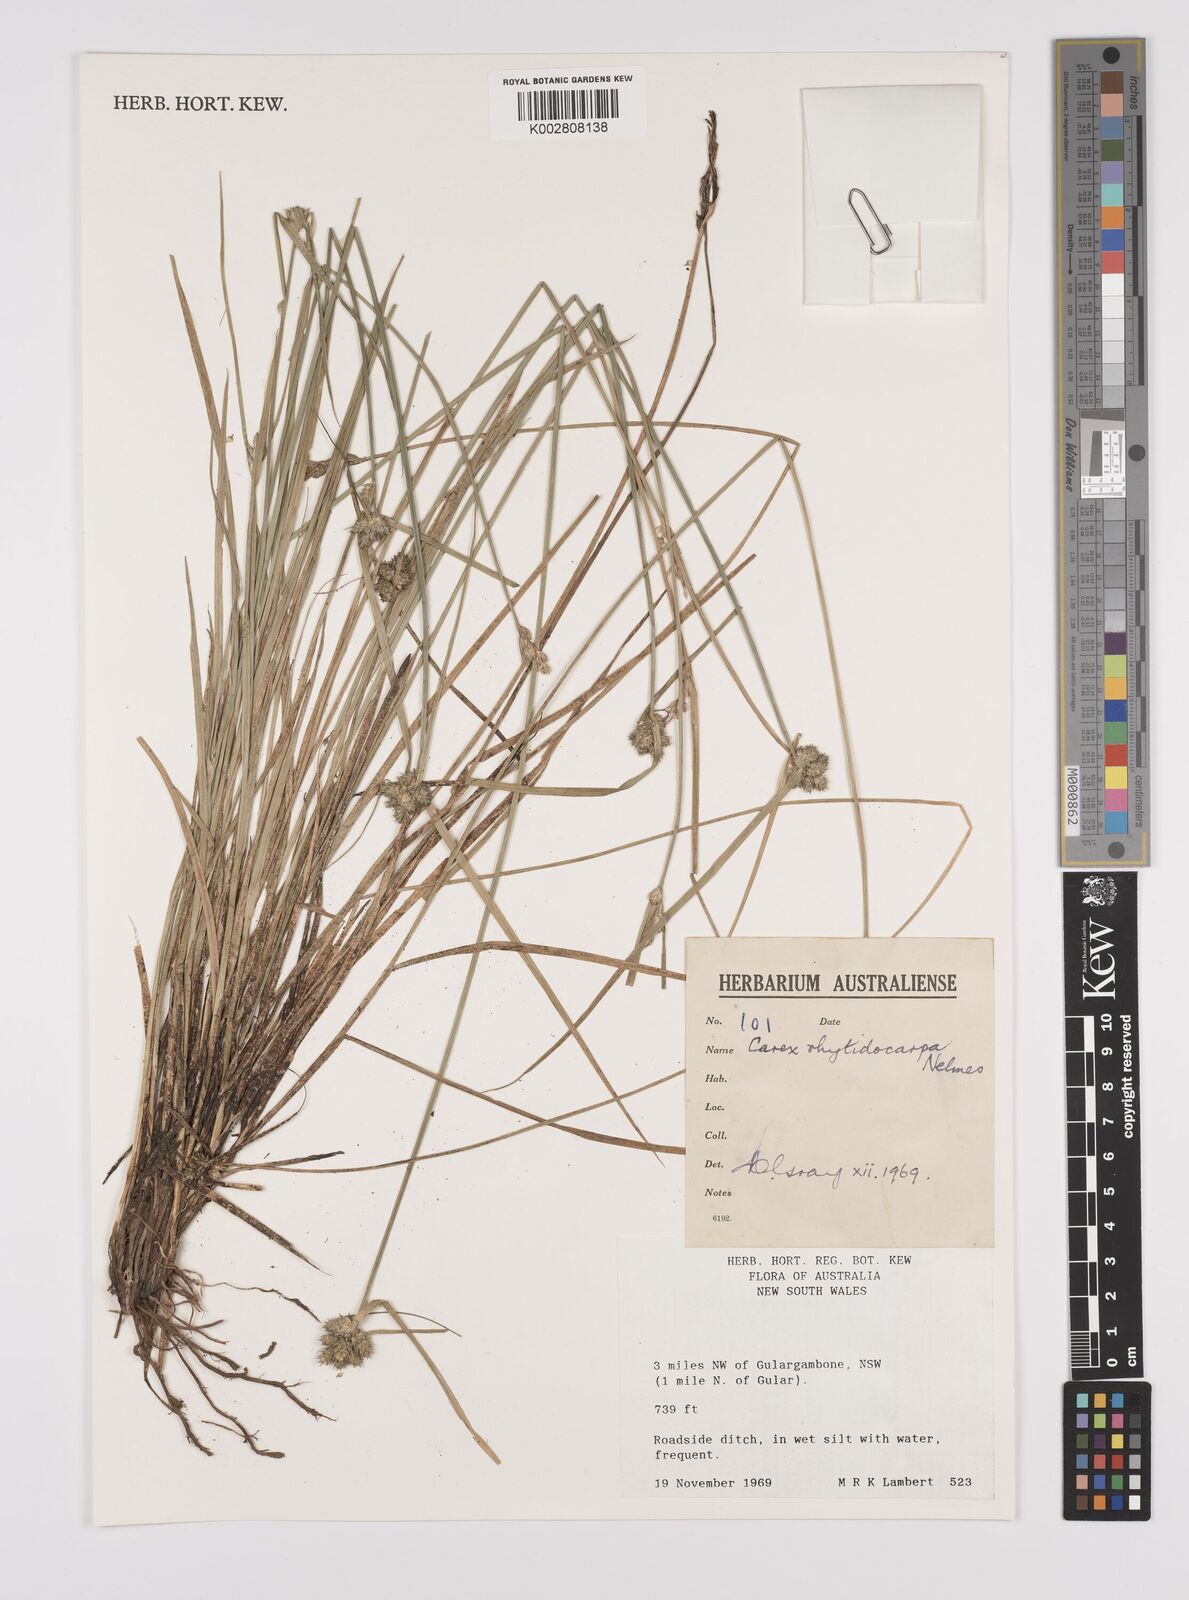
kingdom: Plantae
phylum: Tracheophyta
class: Liliopsida
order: Poales
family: Cyperaceae
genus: Carex
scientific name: Carex inversa
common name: Knob sedge
